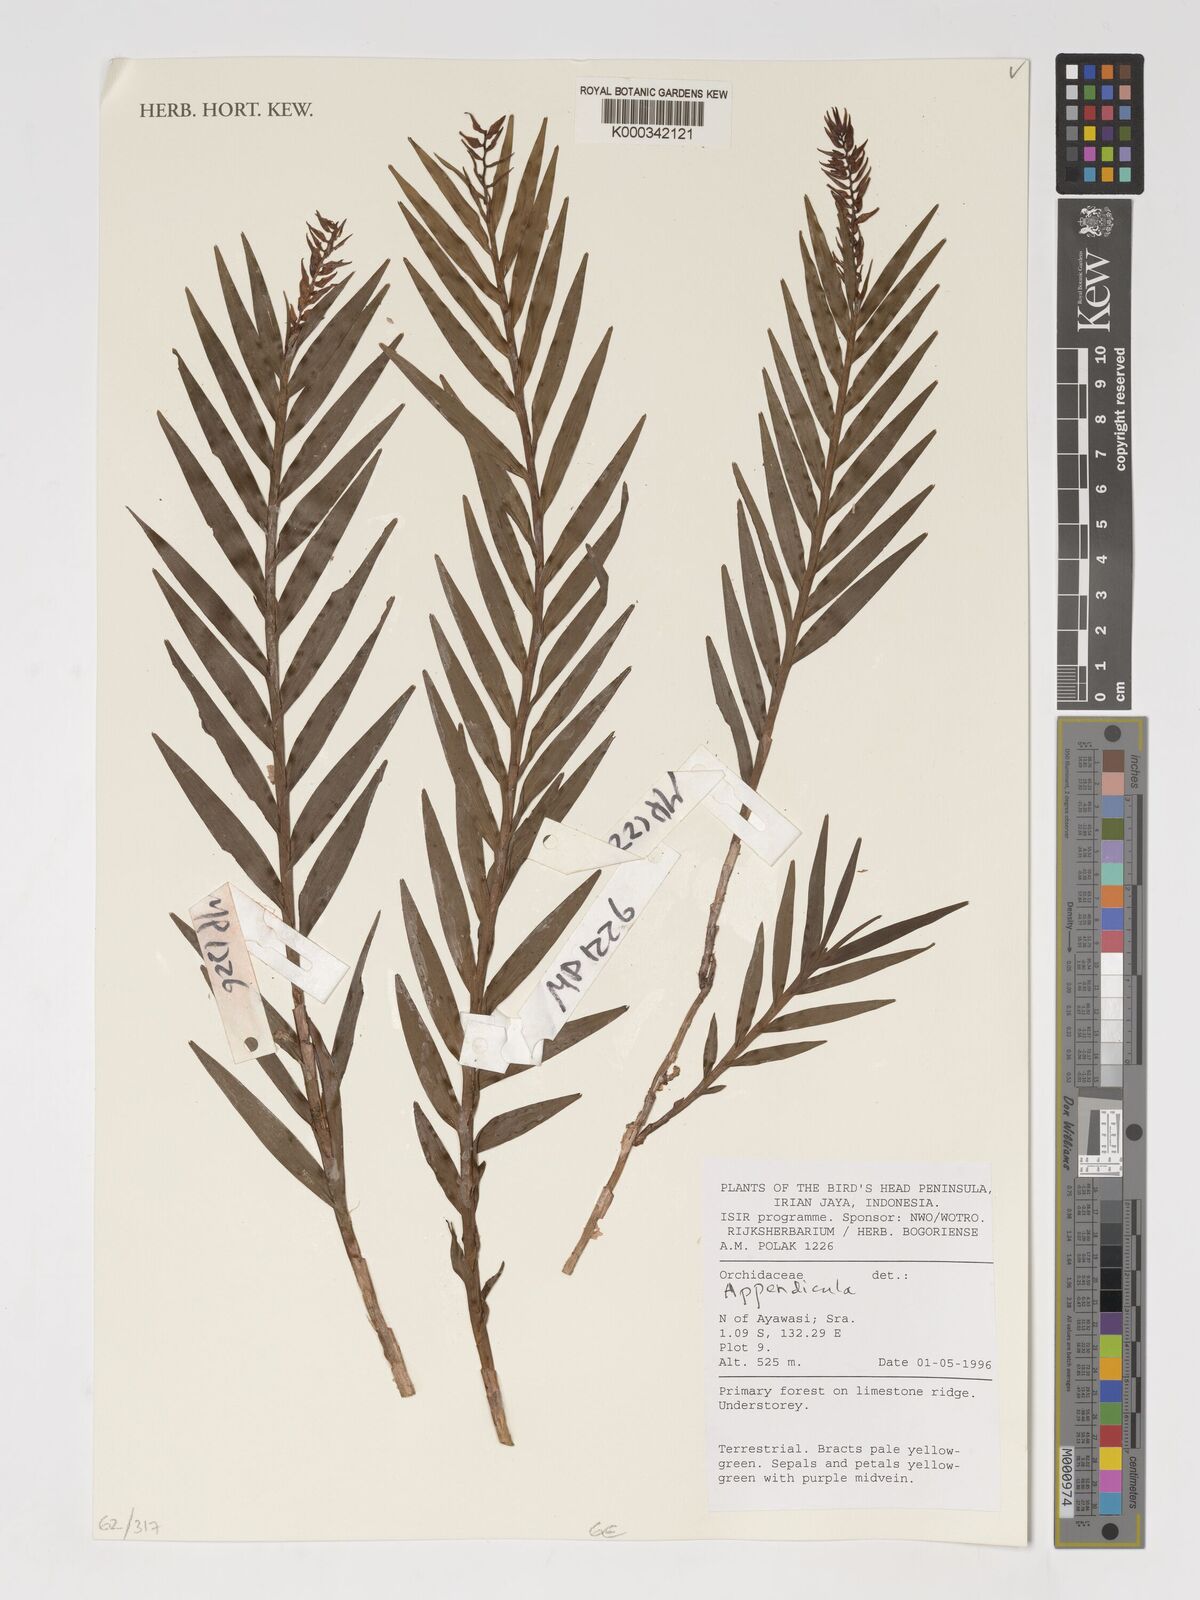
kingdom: Plantae
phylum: Tracheophyta
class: Liliopsida
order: Asparagales
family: Orchidaceae
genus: Appendicula
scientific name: Appendicula
